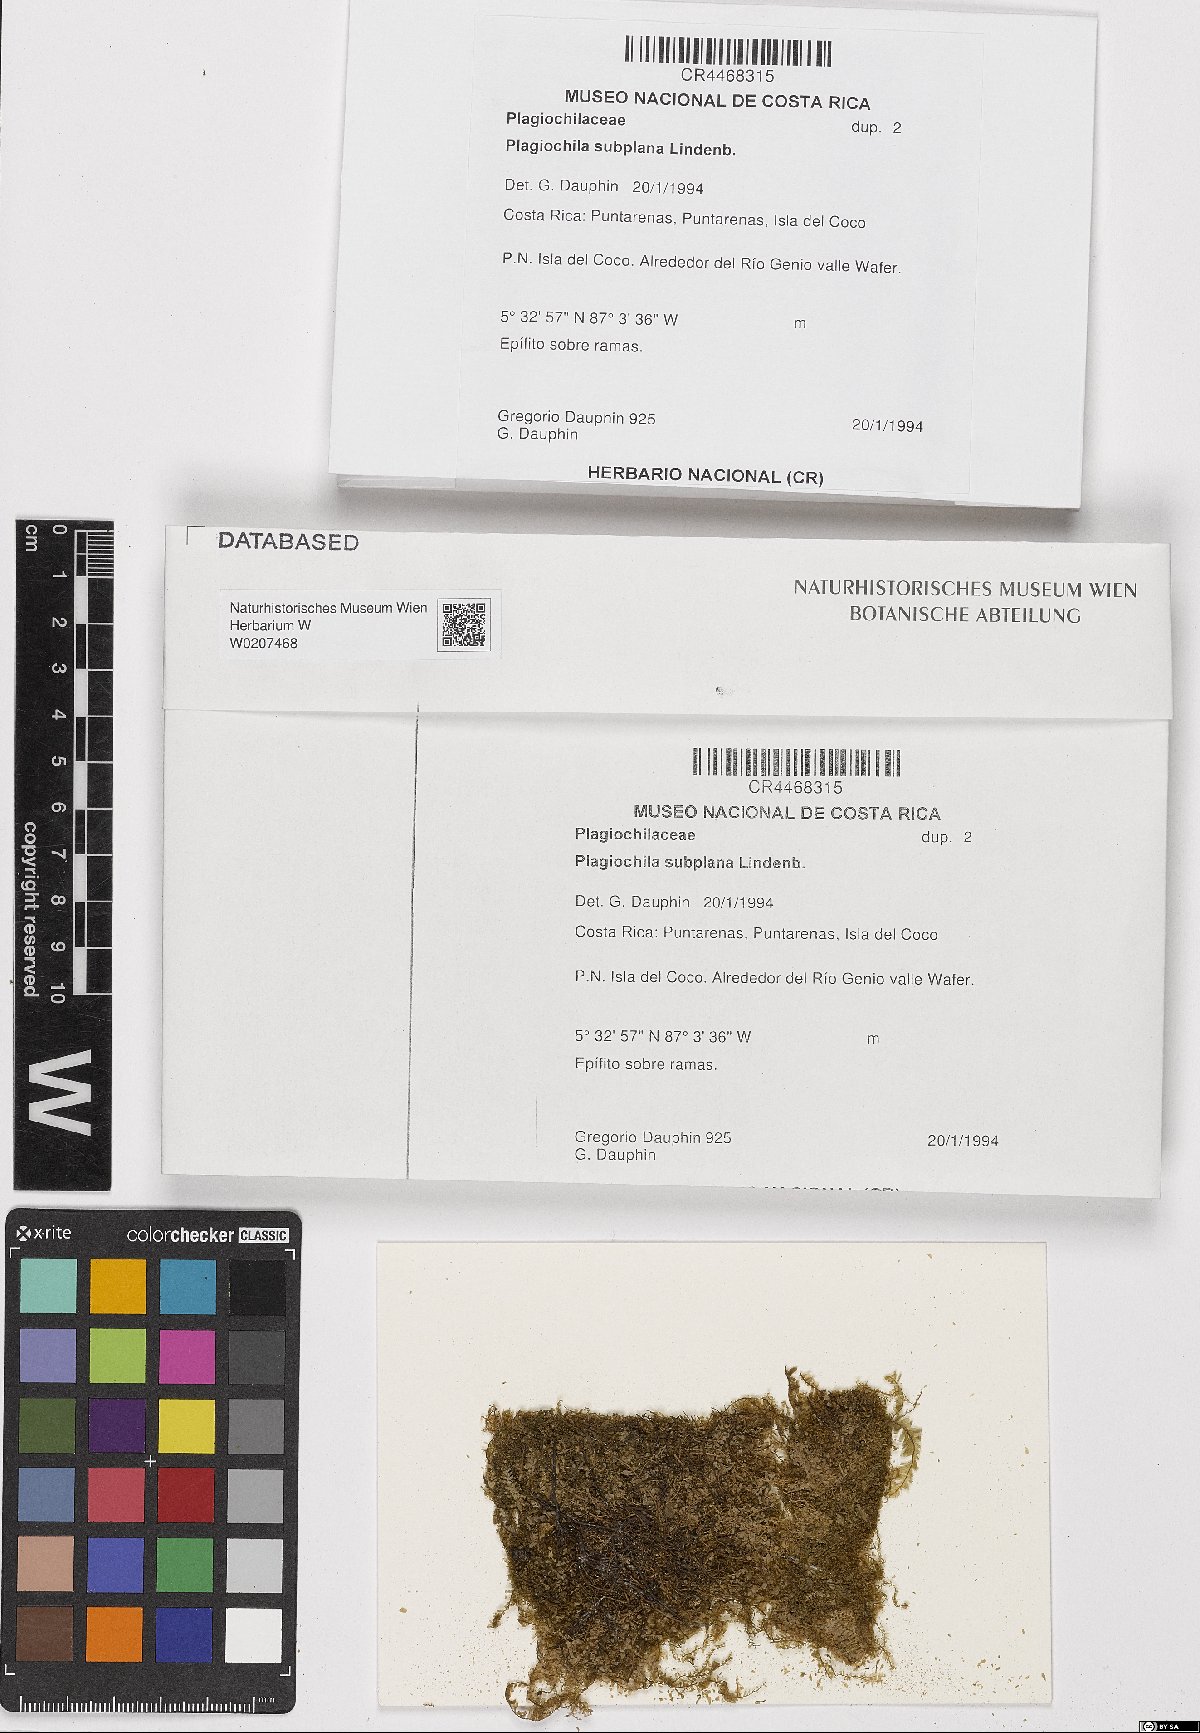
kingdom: Plantae
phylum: Marchantiophyta
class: Jungermanniopsida
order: Jungermanniales
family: Plagiochilaceae
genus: Plagiochila
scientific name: Plagiochila subplana
